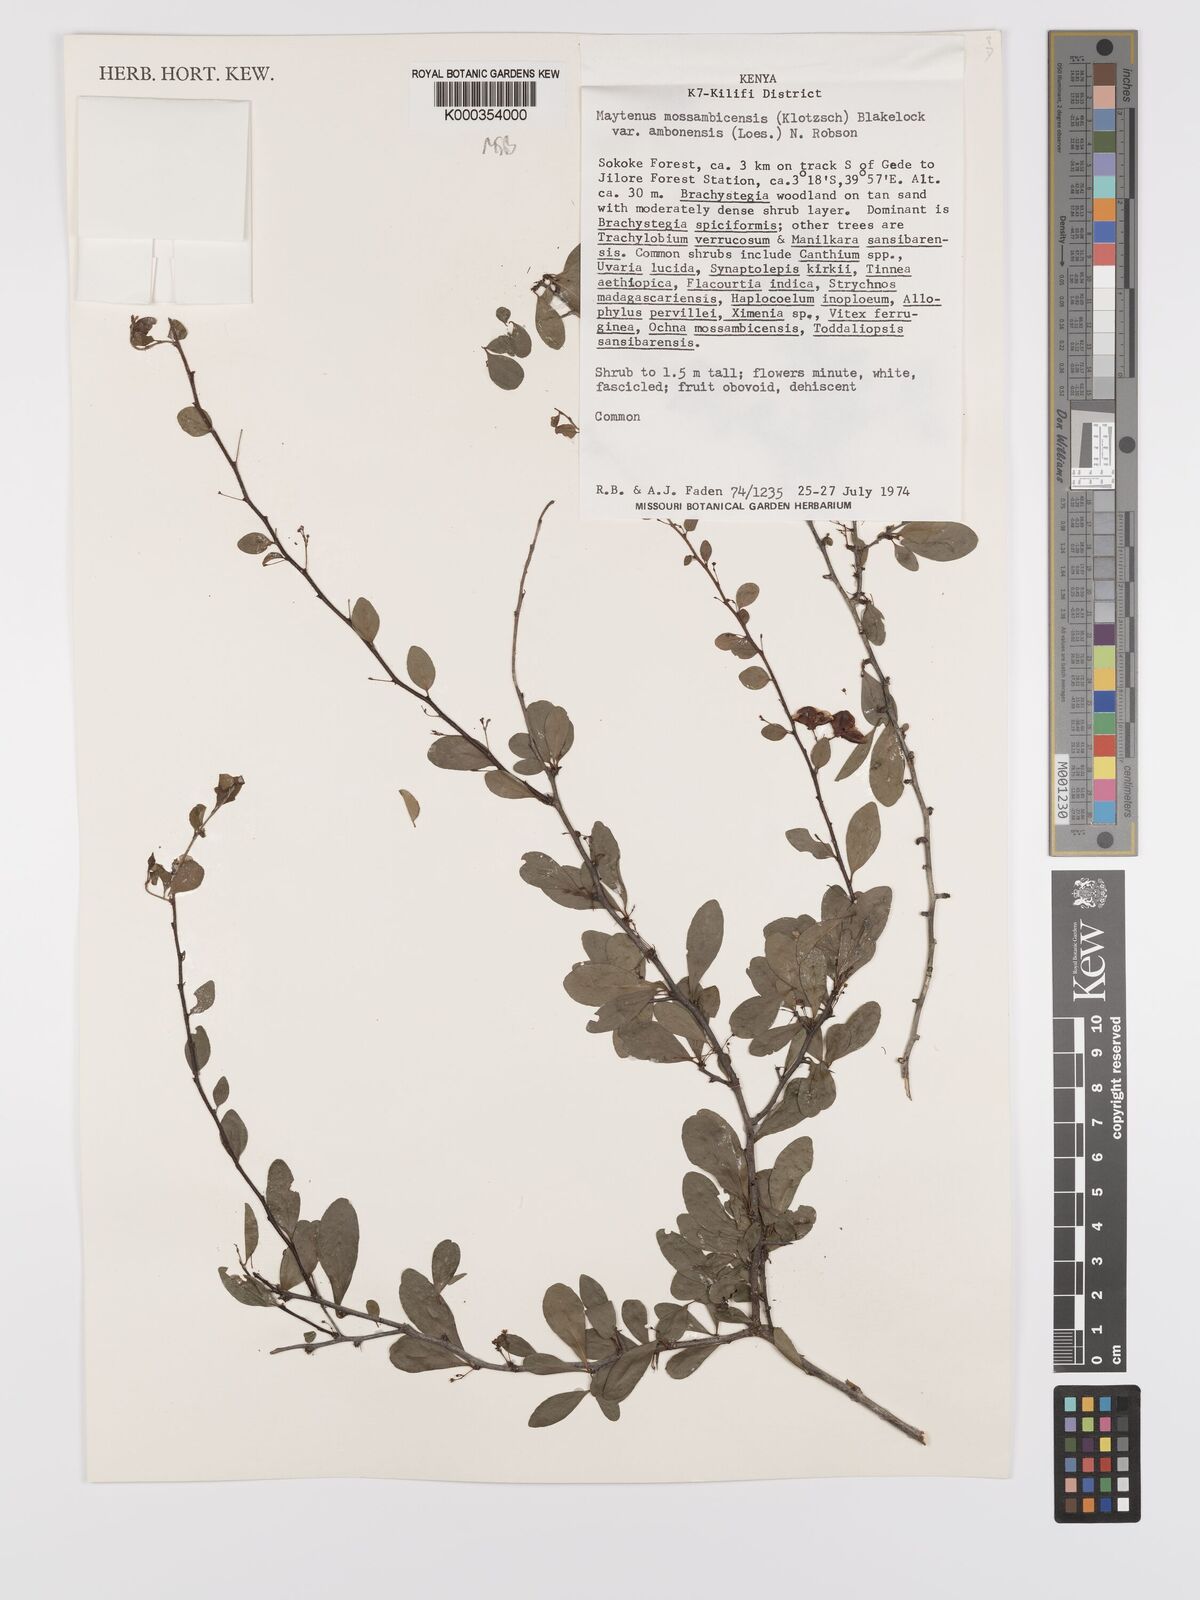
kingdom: Plantae
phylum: Tracheophyta
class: Magnoliopsida
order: Celastrales
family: Celastraceae
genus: Gymnosporia
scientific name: Gymnosporia mossambicensis
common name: Black forest spike-thorn
